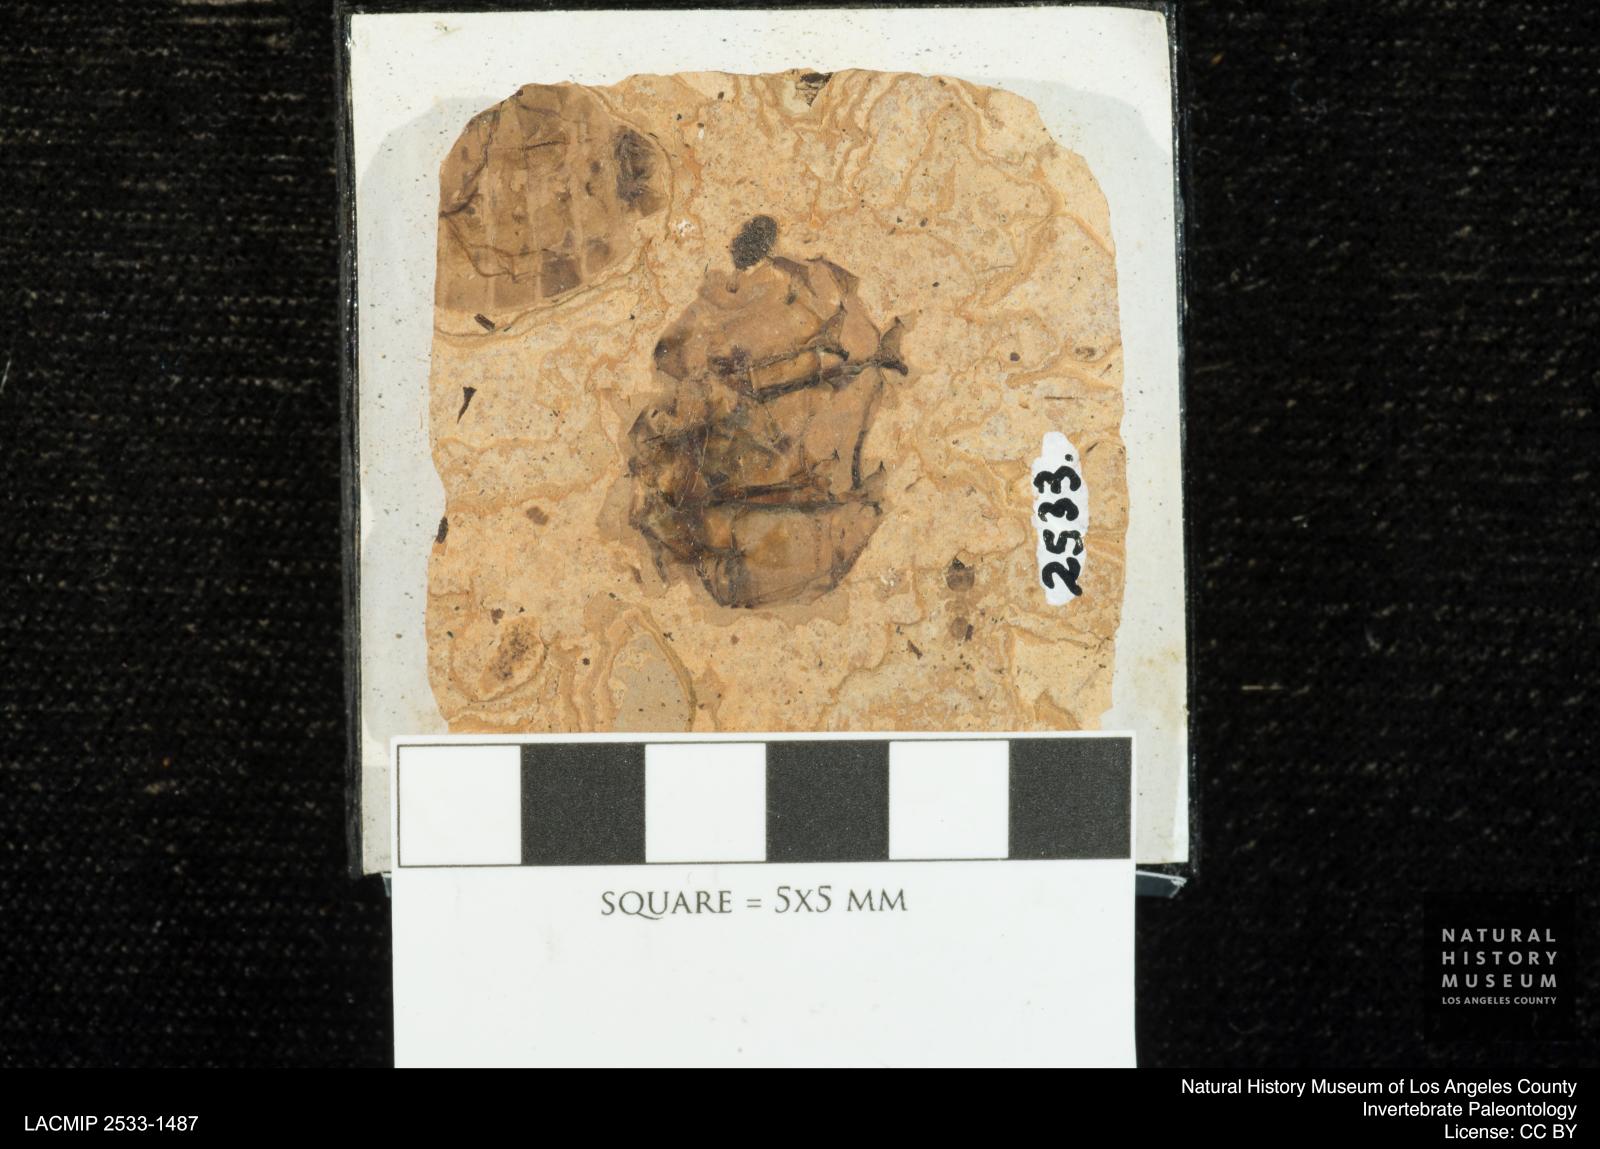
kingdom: Animalia
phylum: Arthropoda
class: Insecta
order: Odonata
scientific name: Odonata
